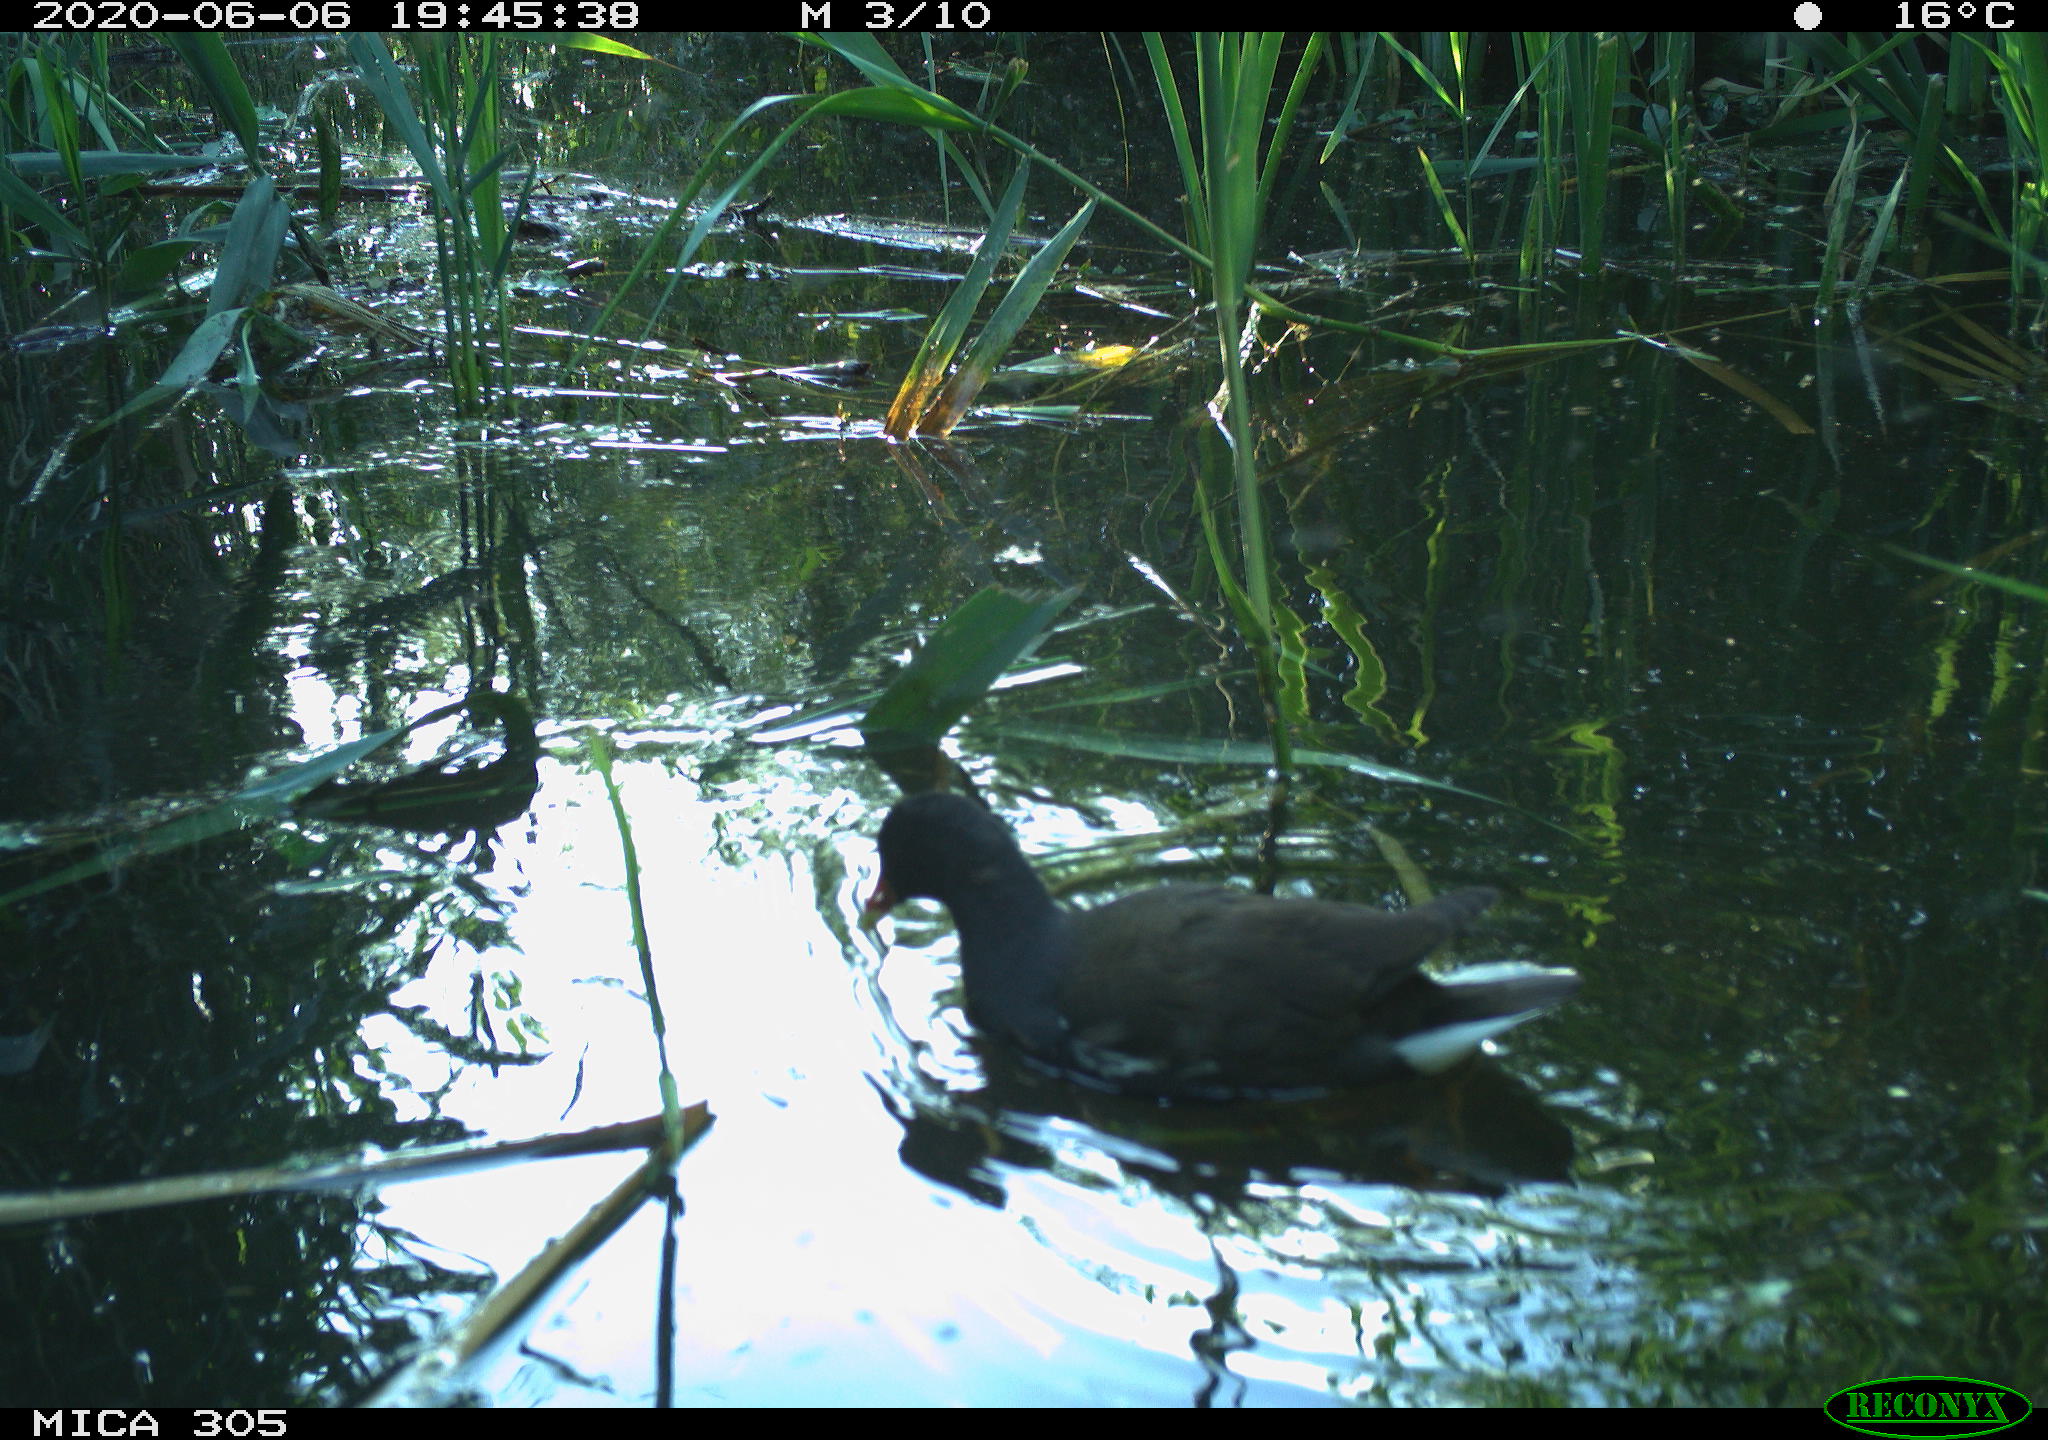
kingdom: Animalia
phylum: Chordata
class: Aves
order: Gruiformes
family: Rallidae
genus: Gallinula
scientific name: Gallinula chloropus
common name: Common moorhen
